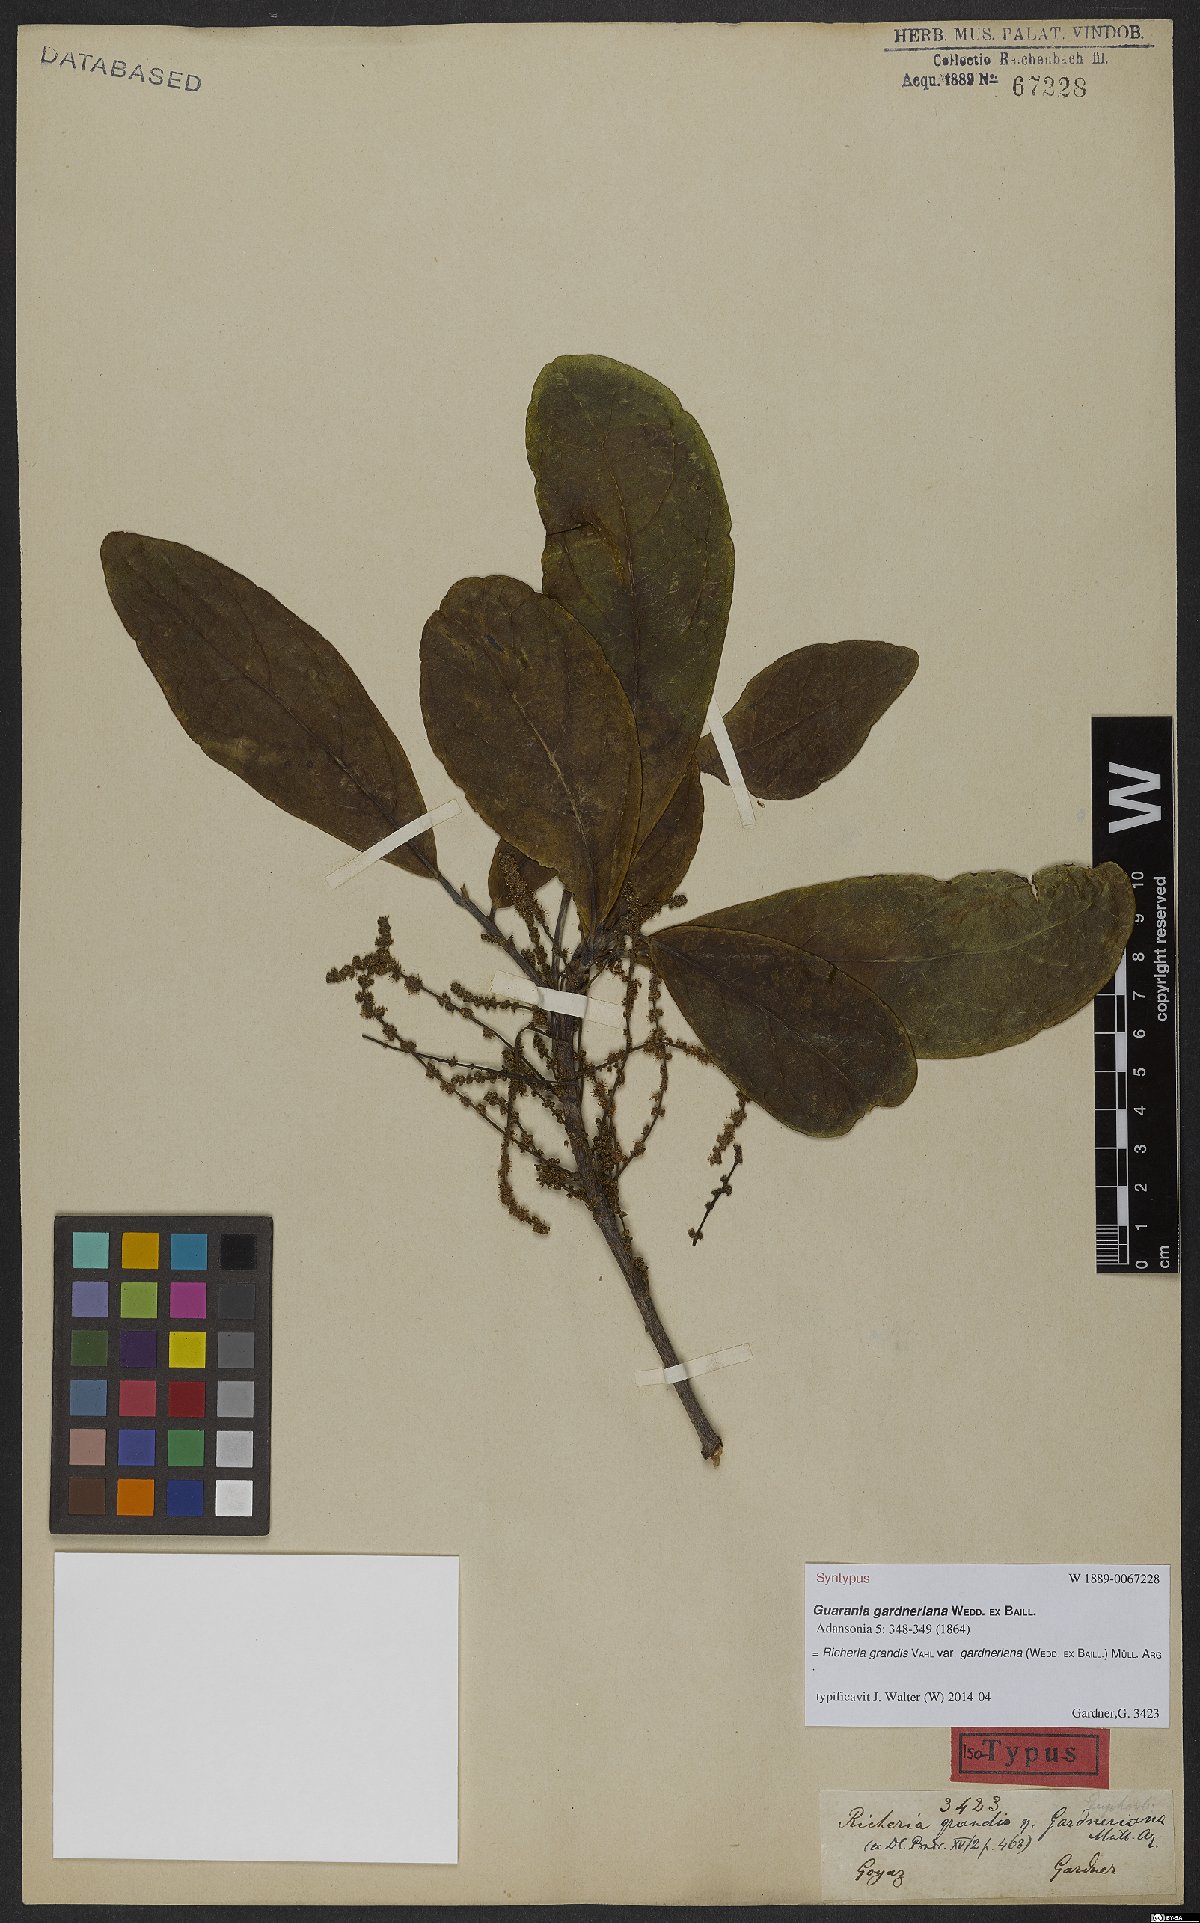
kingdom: Plantae
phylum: Tracheophyta
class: Magnoliopsida
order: Malpighiales
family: Phyllanthaceae
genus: Richeria
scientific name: Richeria grandis
